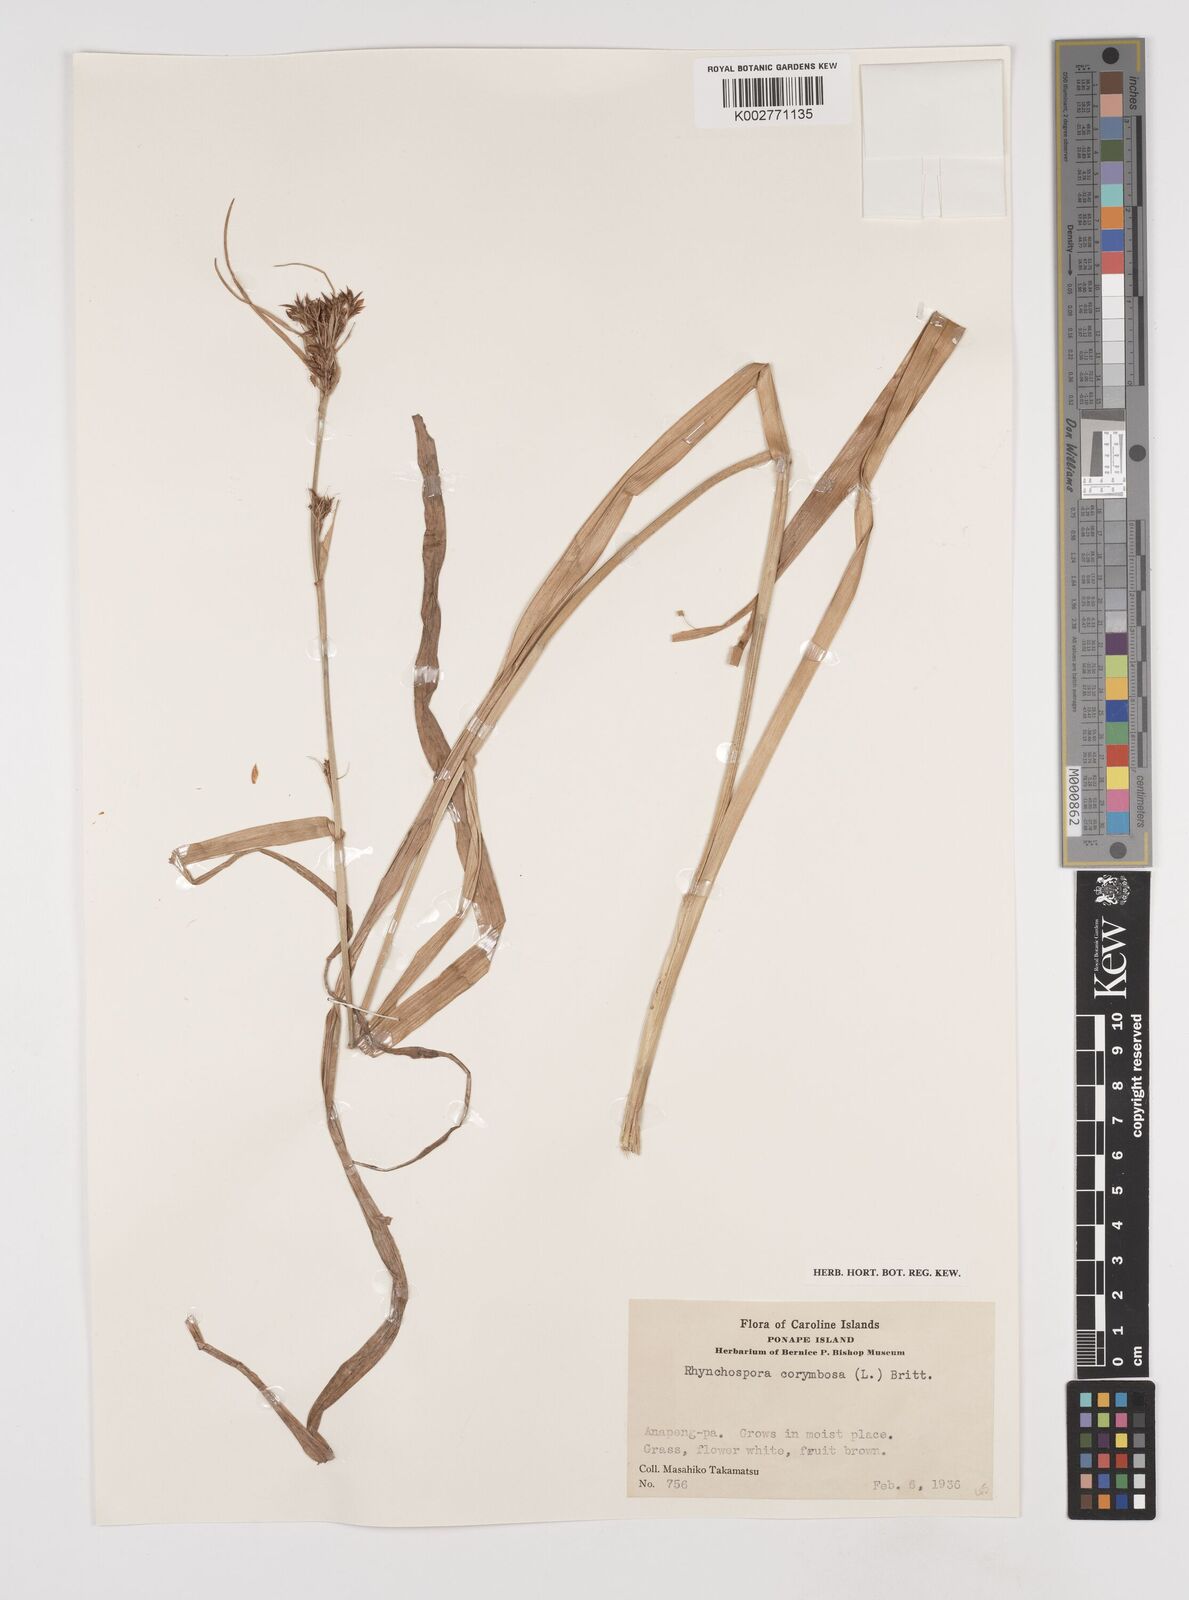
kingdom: Plantae
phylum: Tracheophyta
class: Liliopsida
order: Poales
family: Cyperaceae
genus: Rhynchospora
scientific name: Rhynchospora corymbosa
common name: Golden beak sedge
